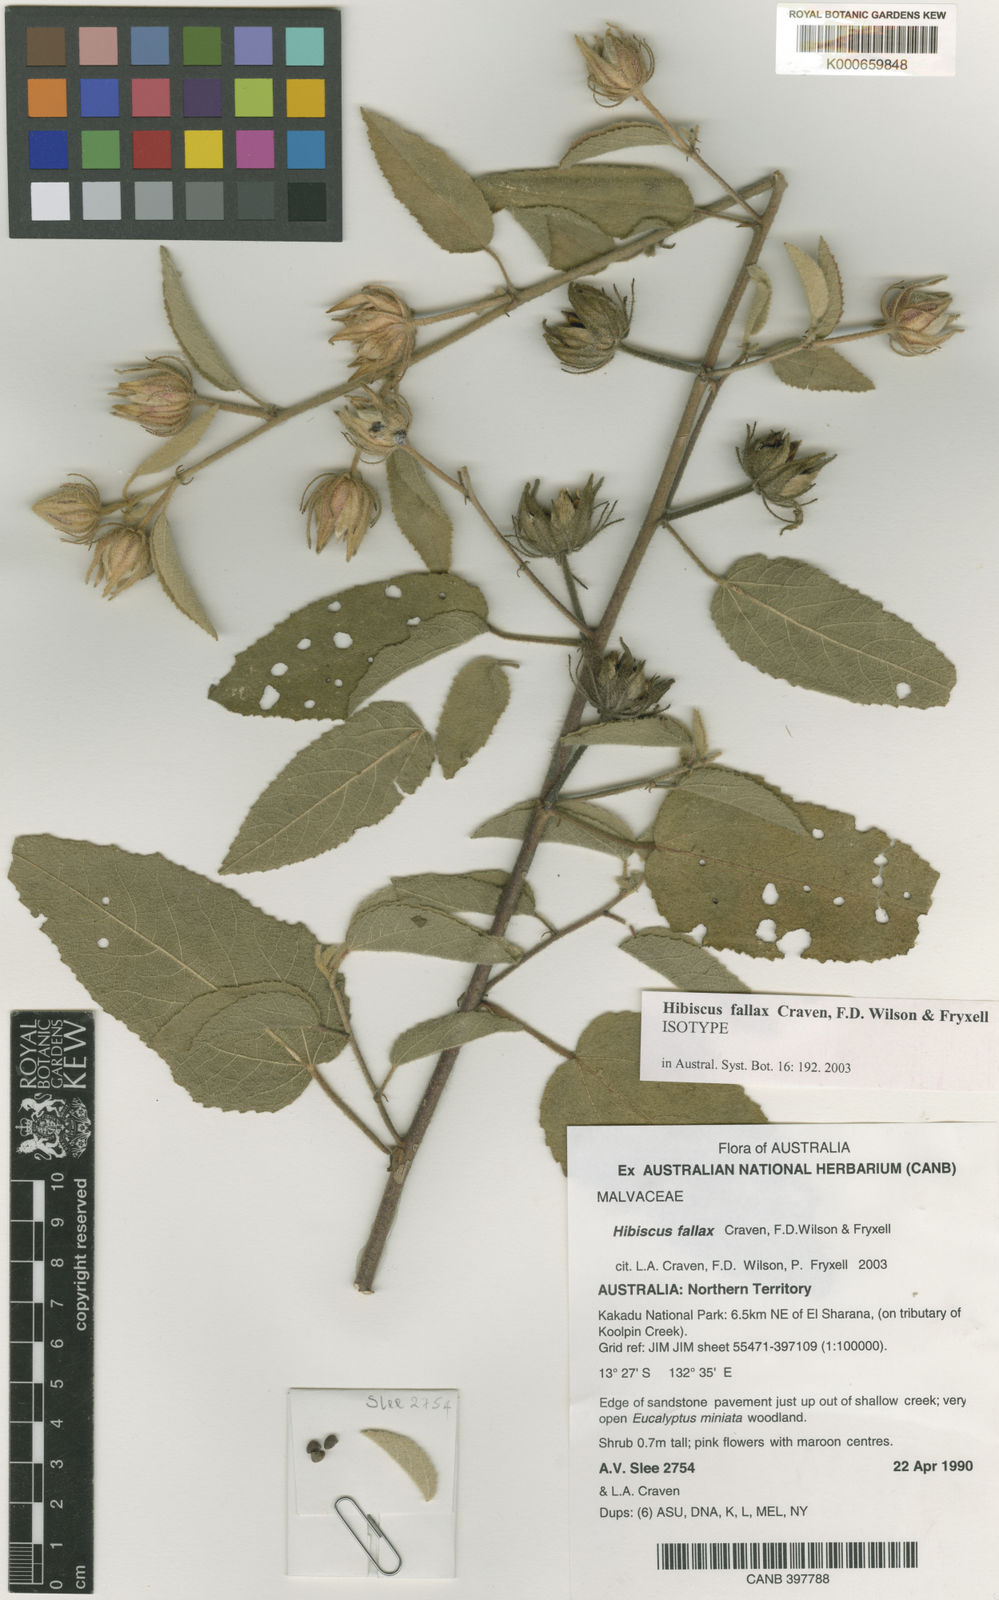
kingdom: Plantae
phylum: Tracheophyta
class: Magnoliopsida
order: Malvales
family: Malvaceae
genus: Hibiscus
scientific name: Hibiscus fallax
